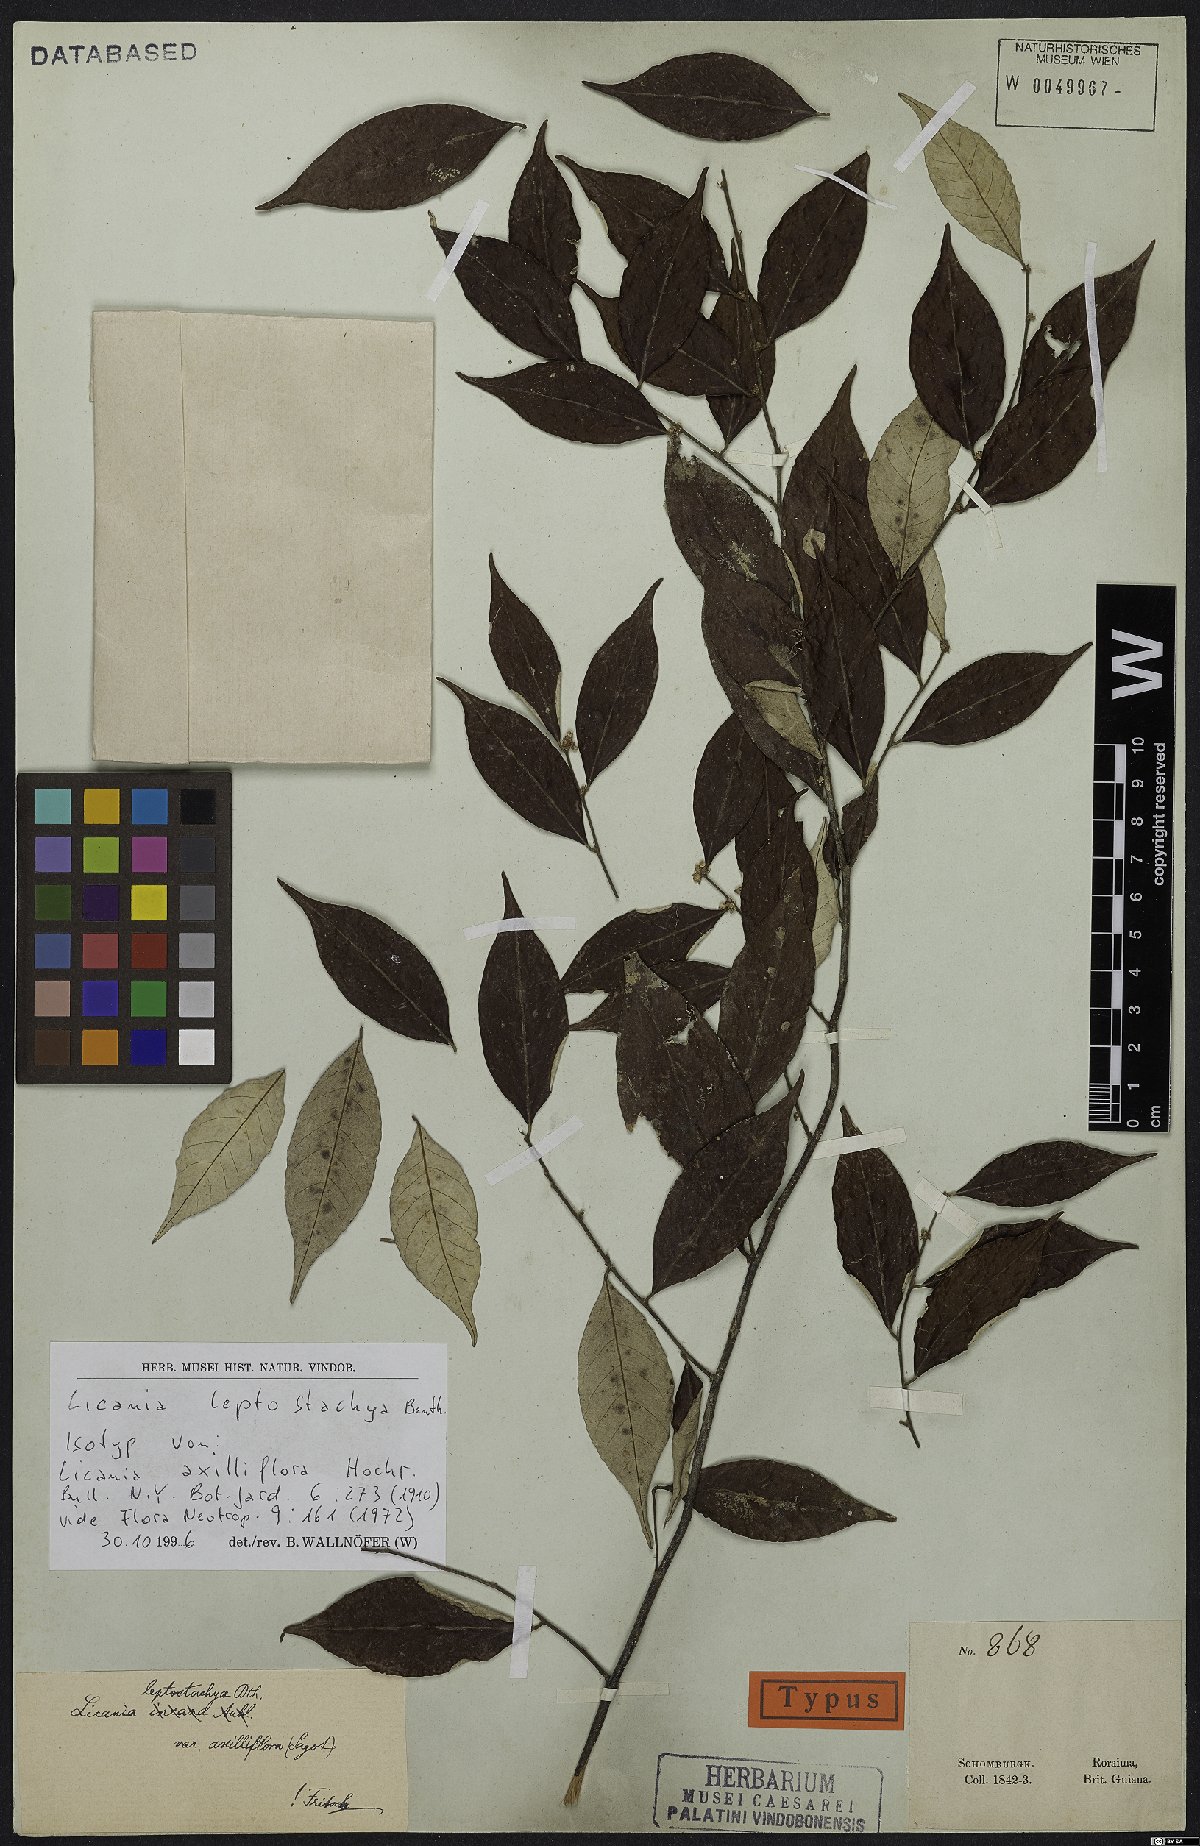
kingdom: Plantae
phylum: Tracheophyta
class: Magnoliopsida
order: Malpighiales
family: Chrysobalanaceae
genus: Licania
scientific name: Licania leptostachya
